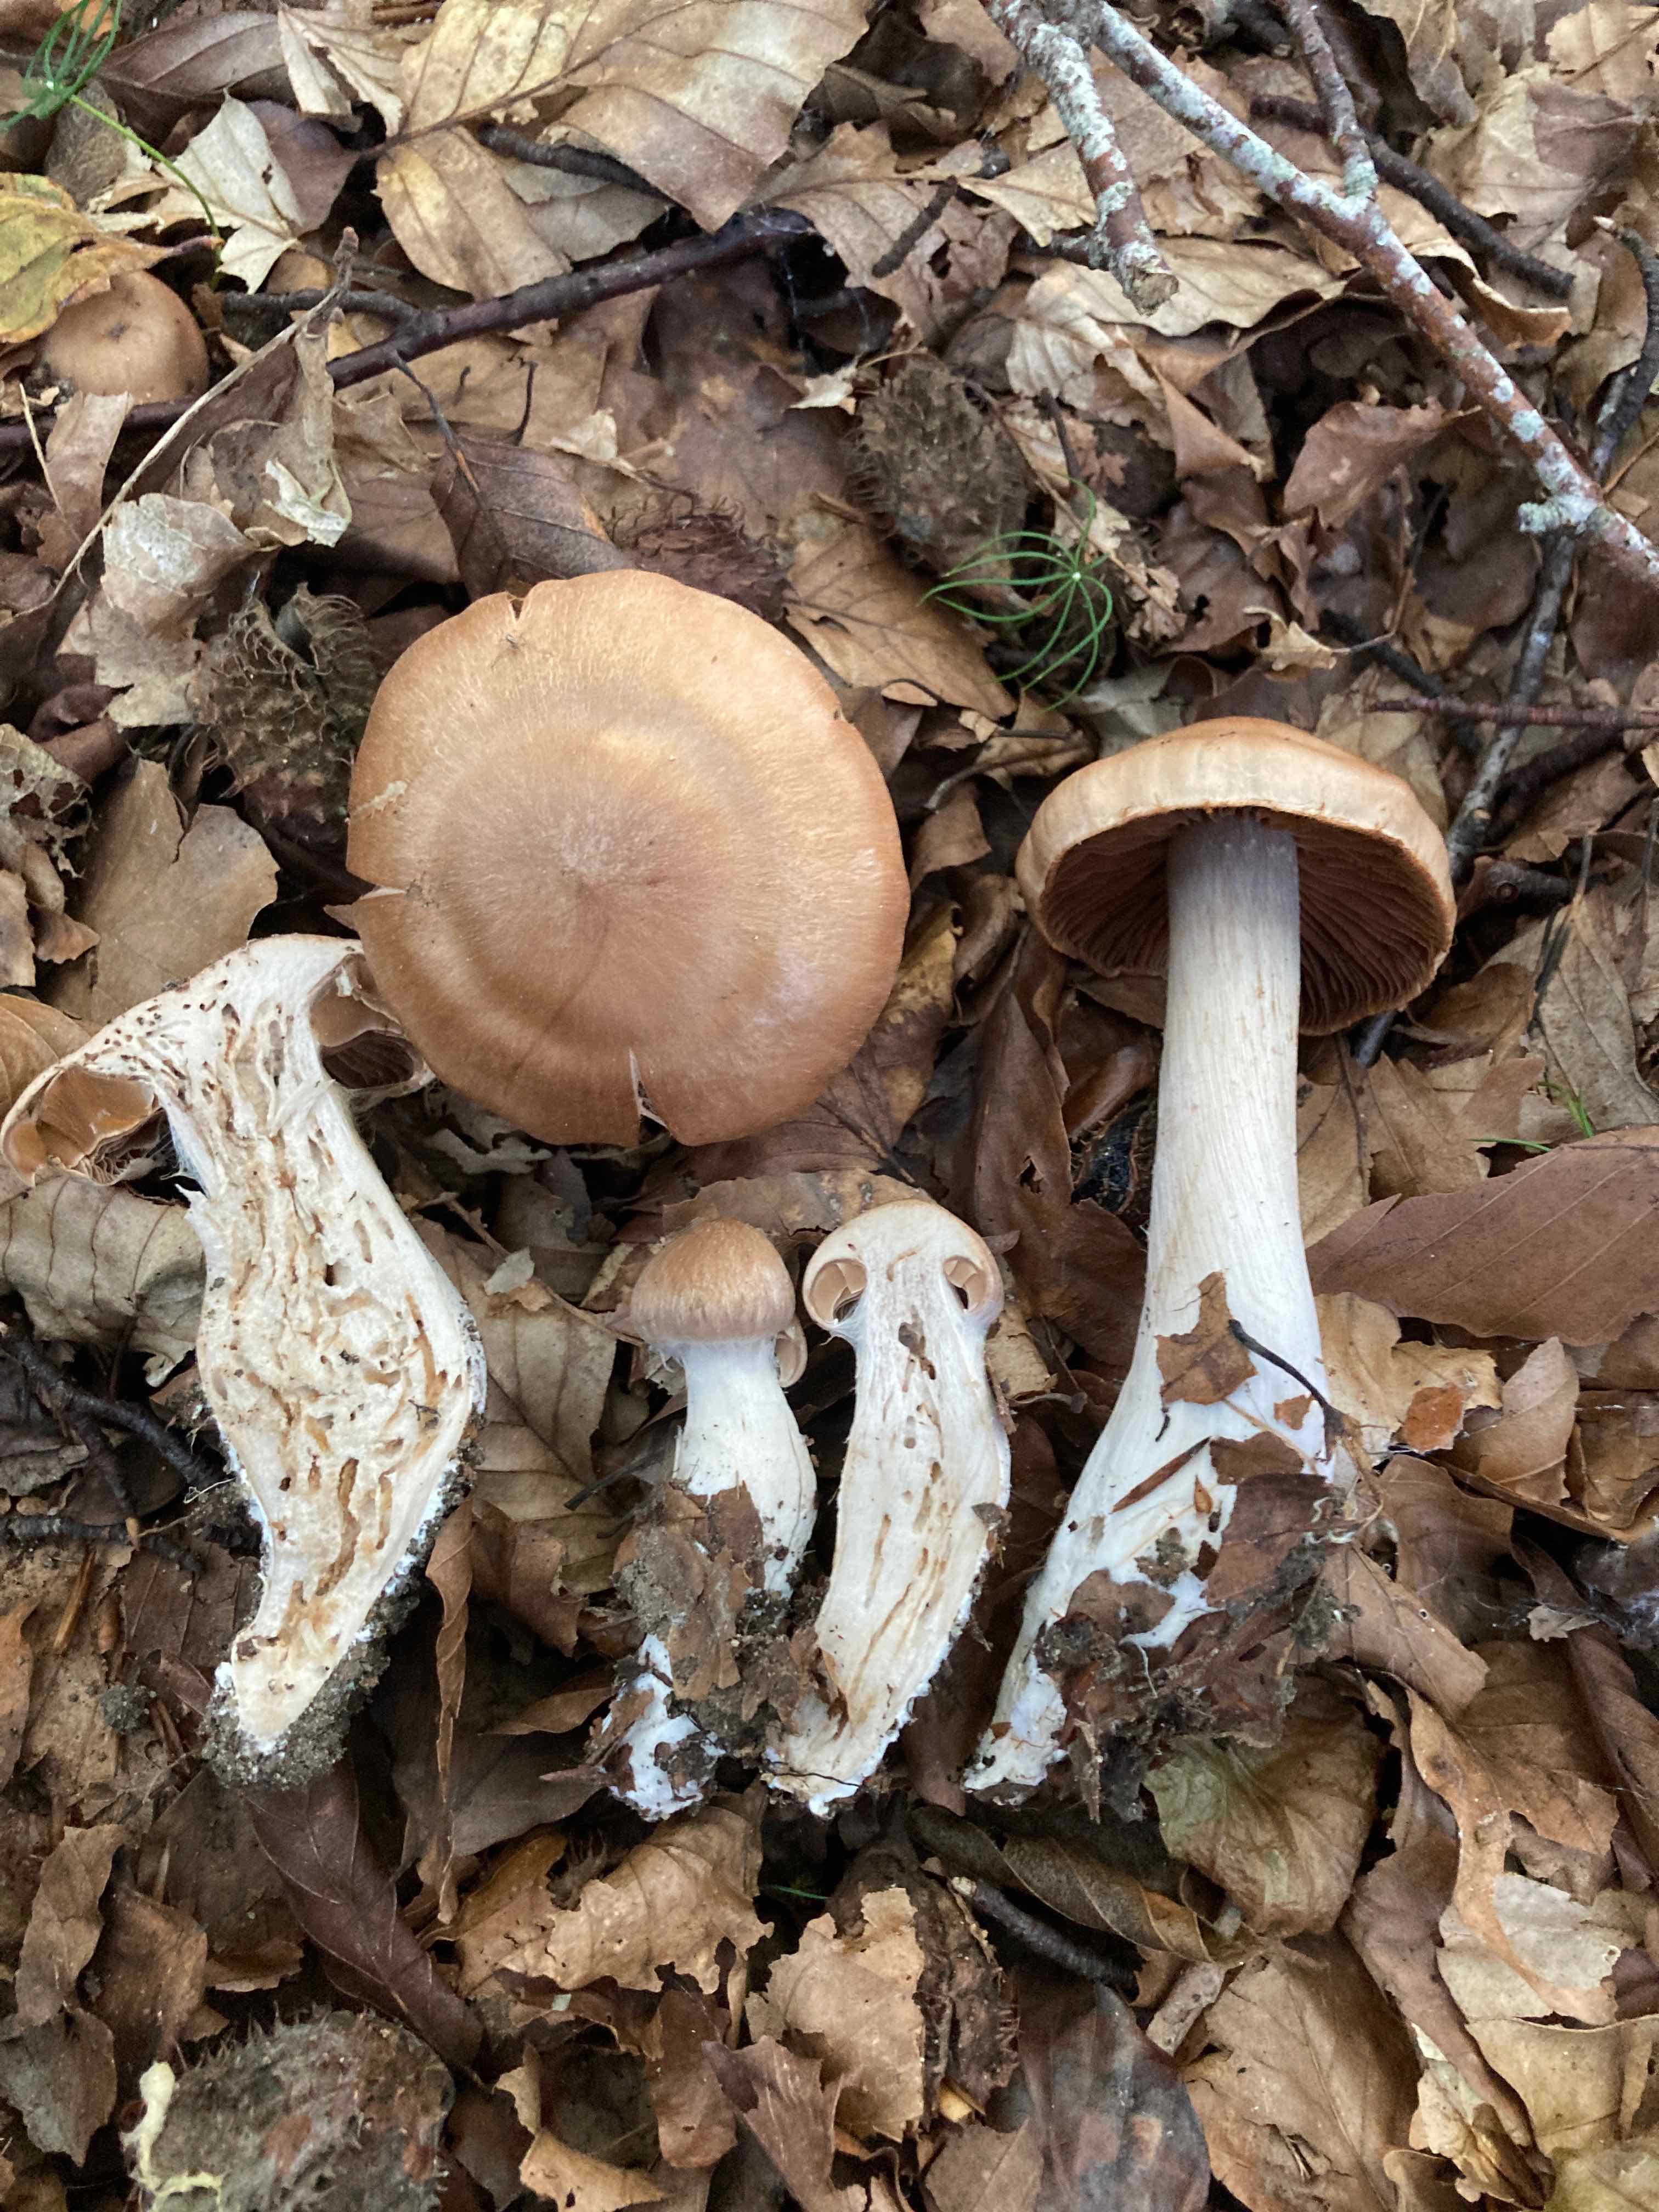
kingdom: Fungi
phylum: Basidiomycota
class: Agaricomycetes
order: Agaricales
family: Cortinariaceae
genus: Cortinarius
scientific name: Cortinarius turgidus
